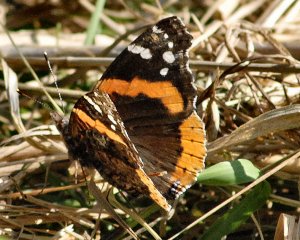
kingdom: Animalia
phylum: Arthropoda
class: Insecta
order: Lepidoptera
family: Nymphalidae
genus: Vanessa
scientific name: Vanessa atalanta
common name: Red Admiral
